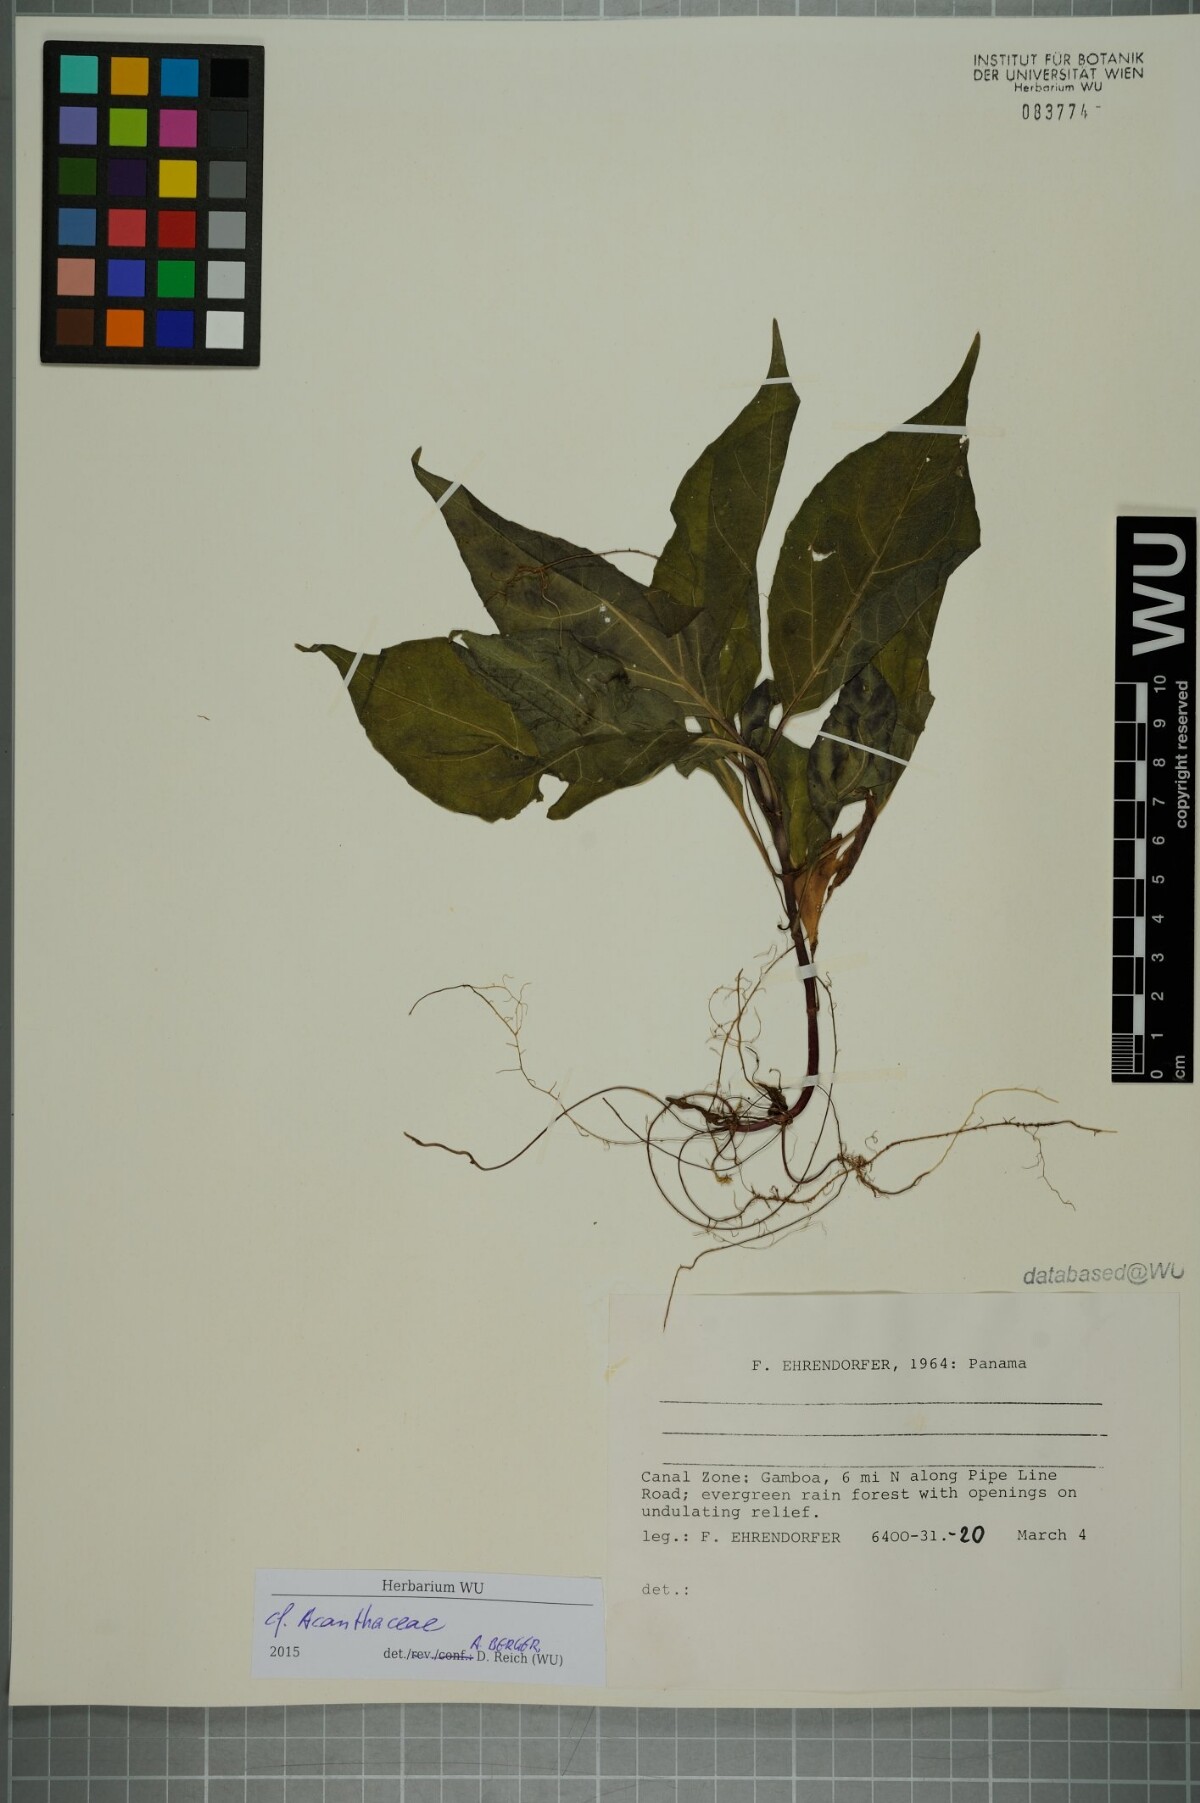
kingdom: Plantae
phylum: Tracheophyta
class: Magnoliopsida
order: Lamiales
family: Acanthaceae
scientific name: Acanthaceae
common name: Acanthaceae
